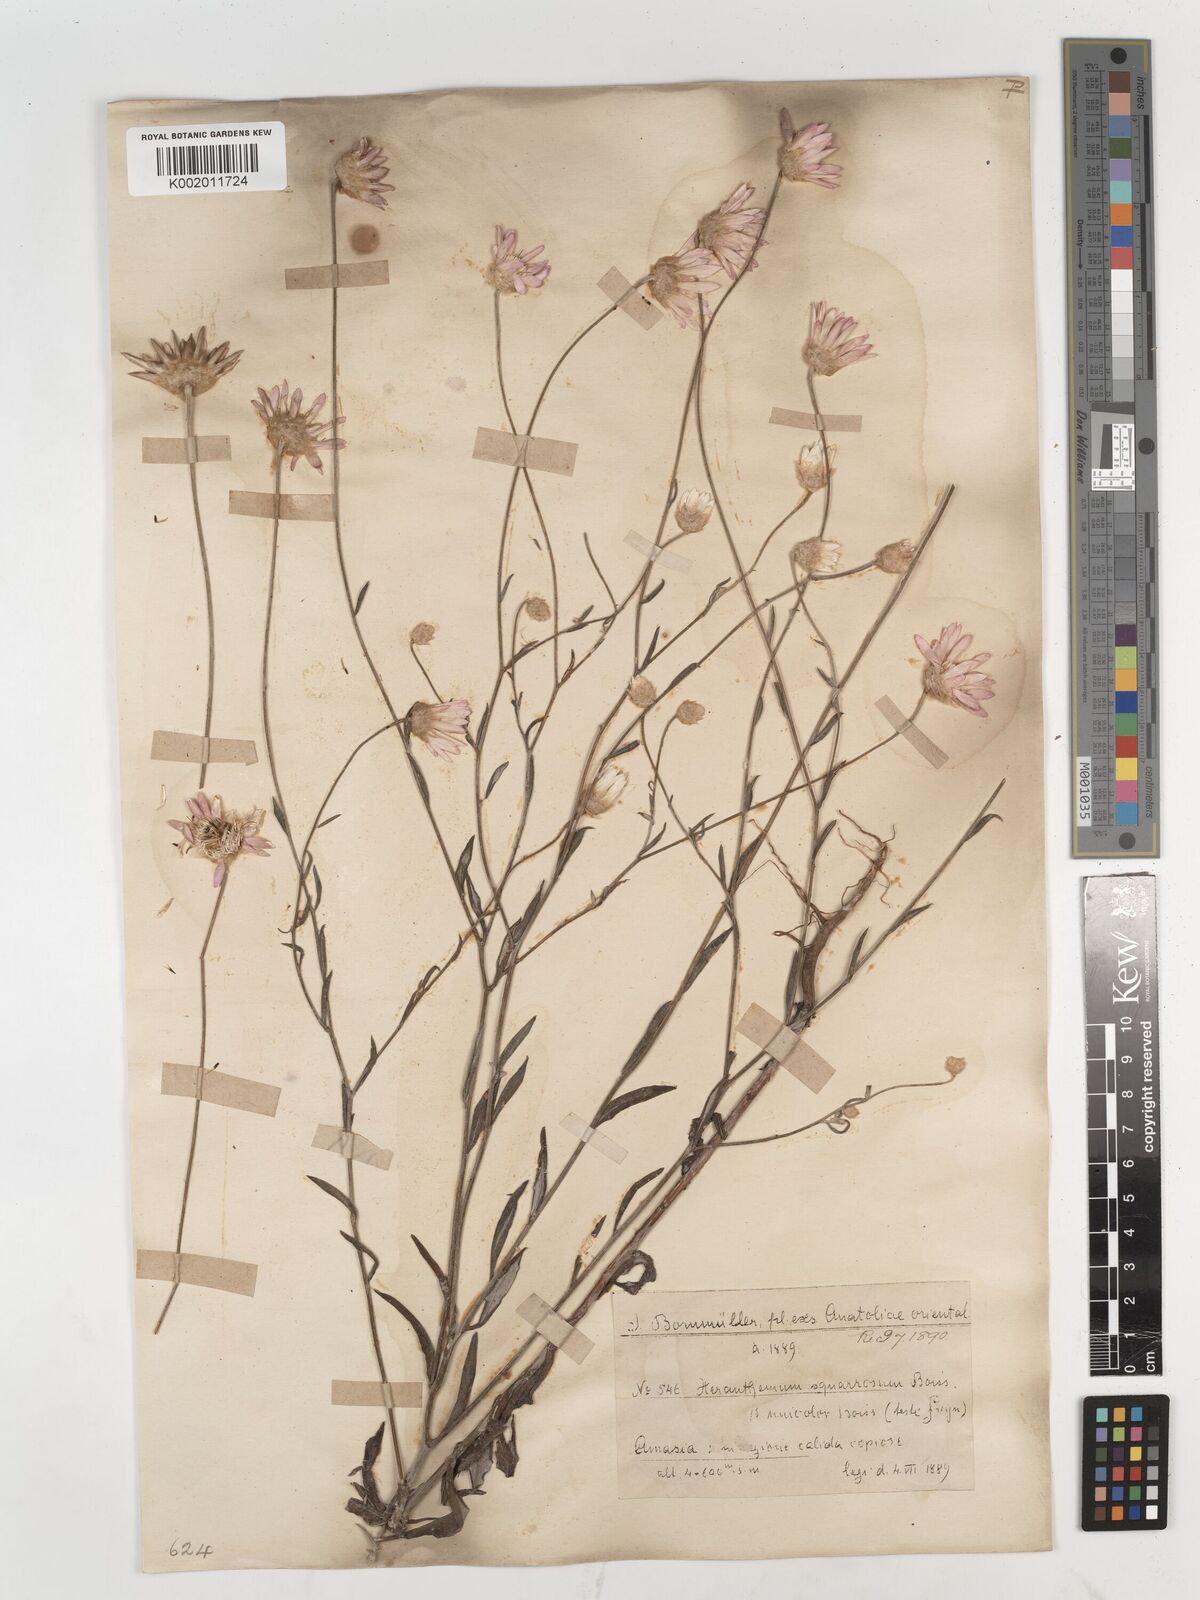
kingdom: Plantae
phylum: Tracheophyta
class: Magnoliopsida
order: Asterales
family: Asteraceae
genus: Xeranthemum
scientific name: Xeranthemum squarrosum
